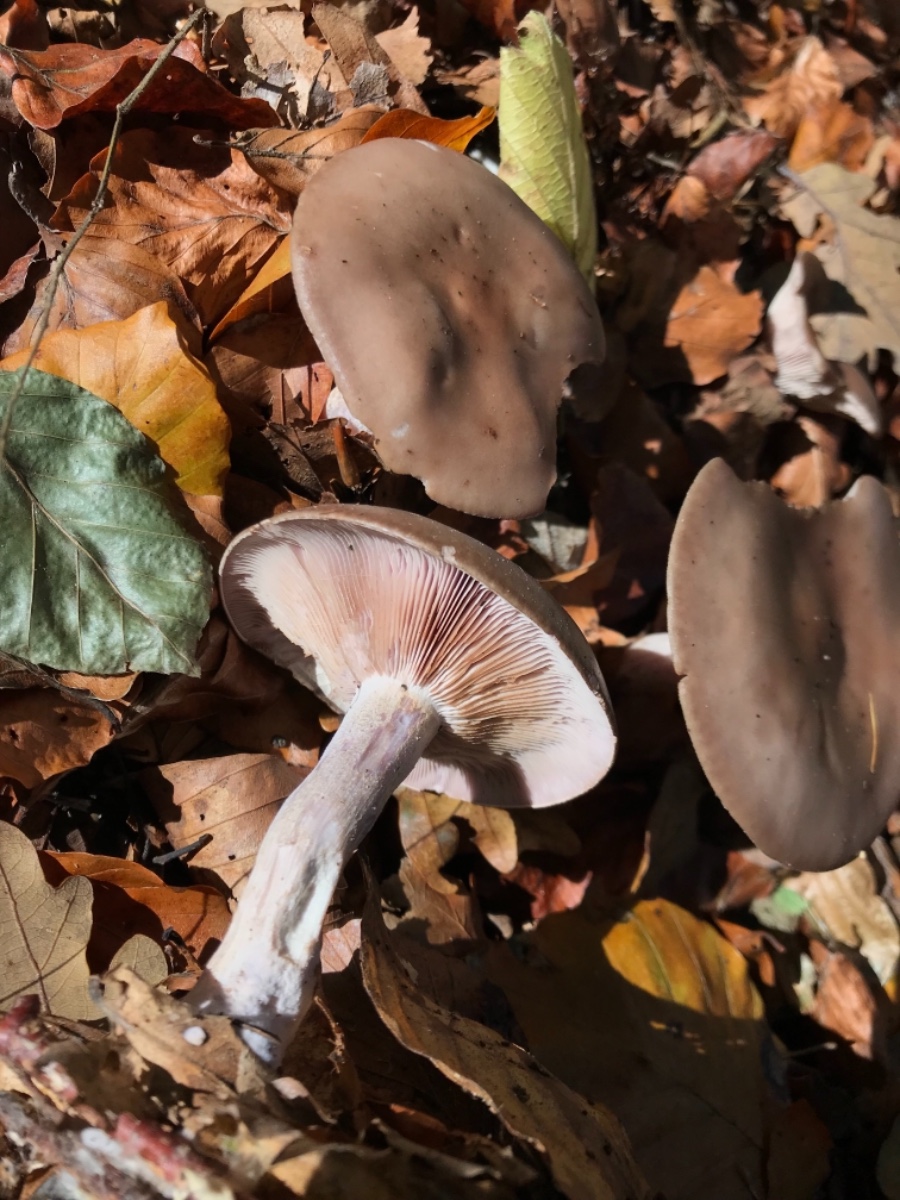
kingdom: Fungi
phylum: Basidiomycota
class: Agaricomycetes
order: Agaricales
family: Tricholomataceae
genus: Lepista
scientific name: Lepista nuda
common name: violet hekseringshat
